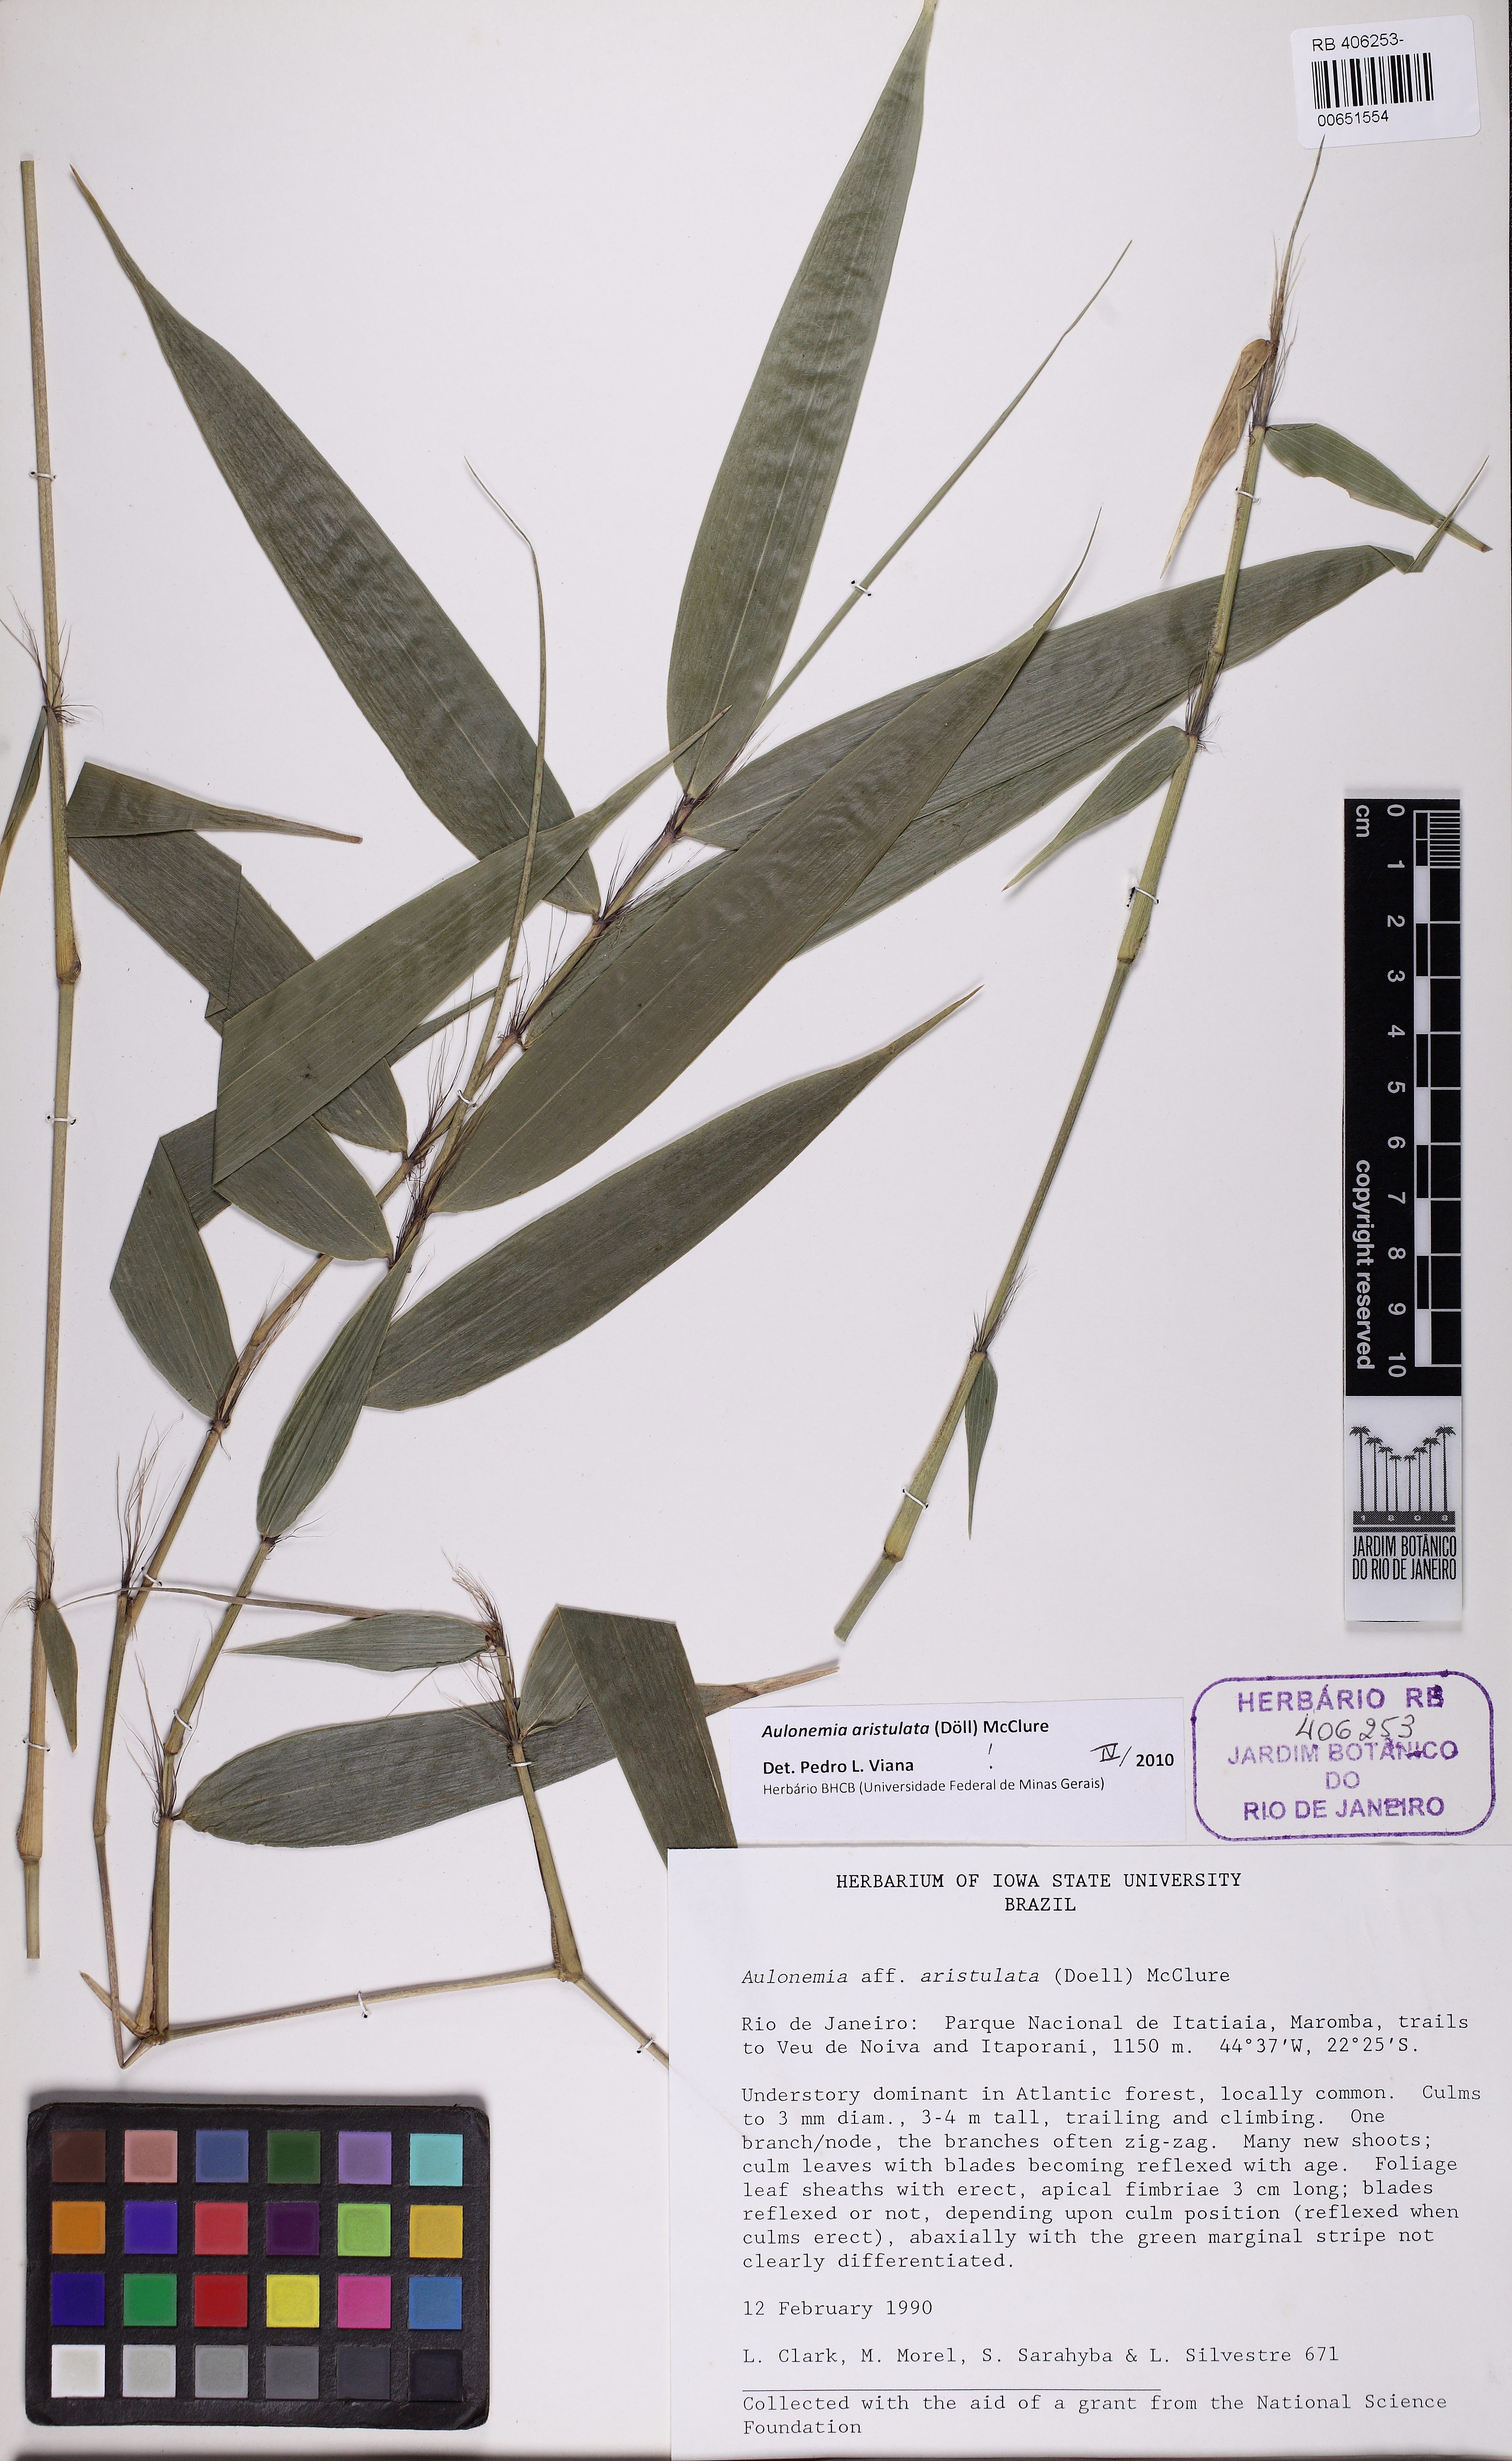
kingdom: Plantae
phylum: Tracheophyta
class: Liliopsida
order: Poales
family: Poaceae
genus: Aulonemia
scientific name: Aulonemia aristulata
